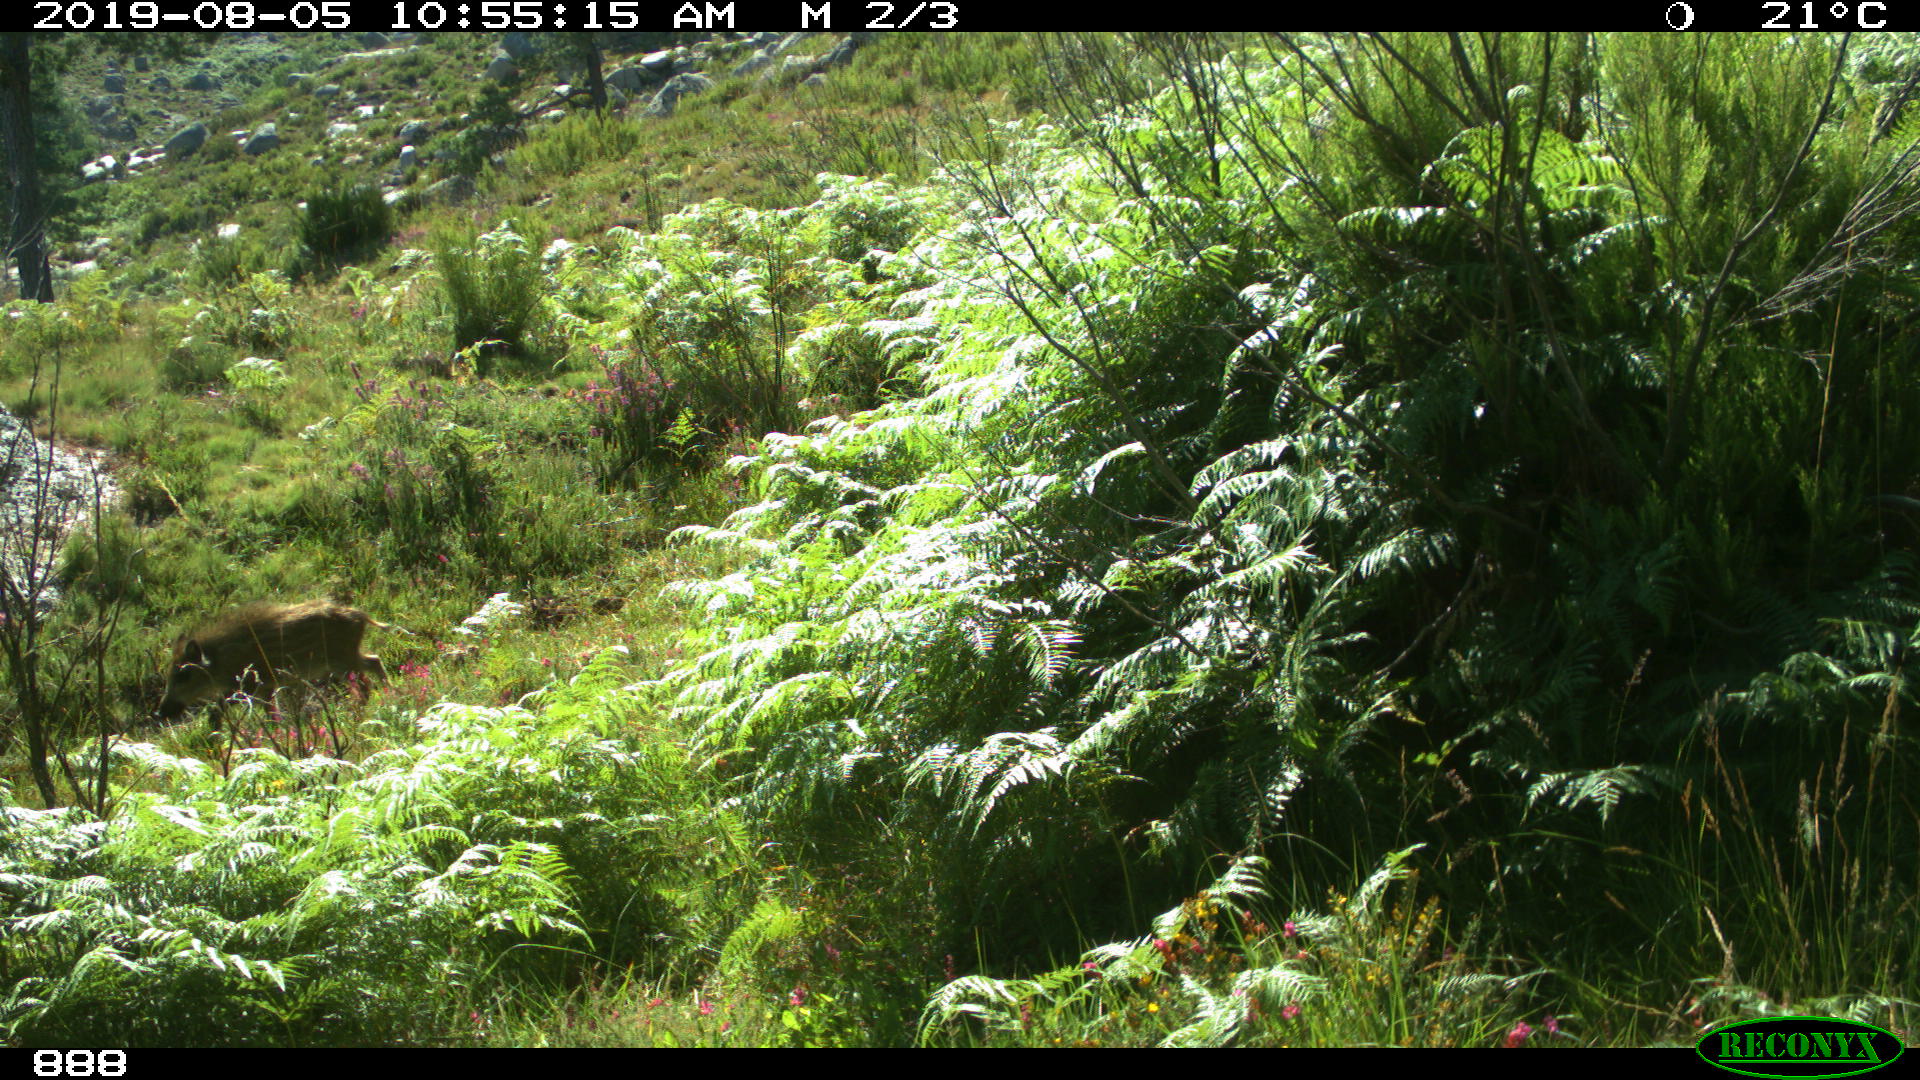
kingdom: Animalia
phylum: Chordata
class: Mammalia
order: Artiodactyla
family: Suidae
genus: Sus
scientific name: Sus scrofa
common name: Wild boar
